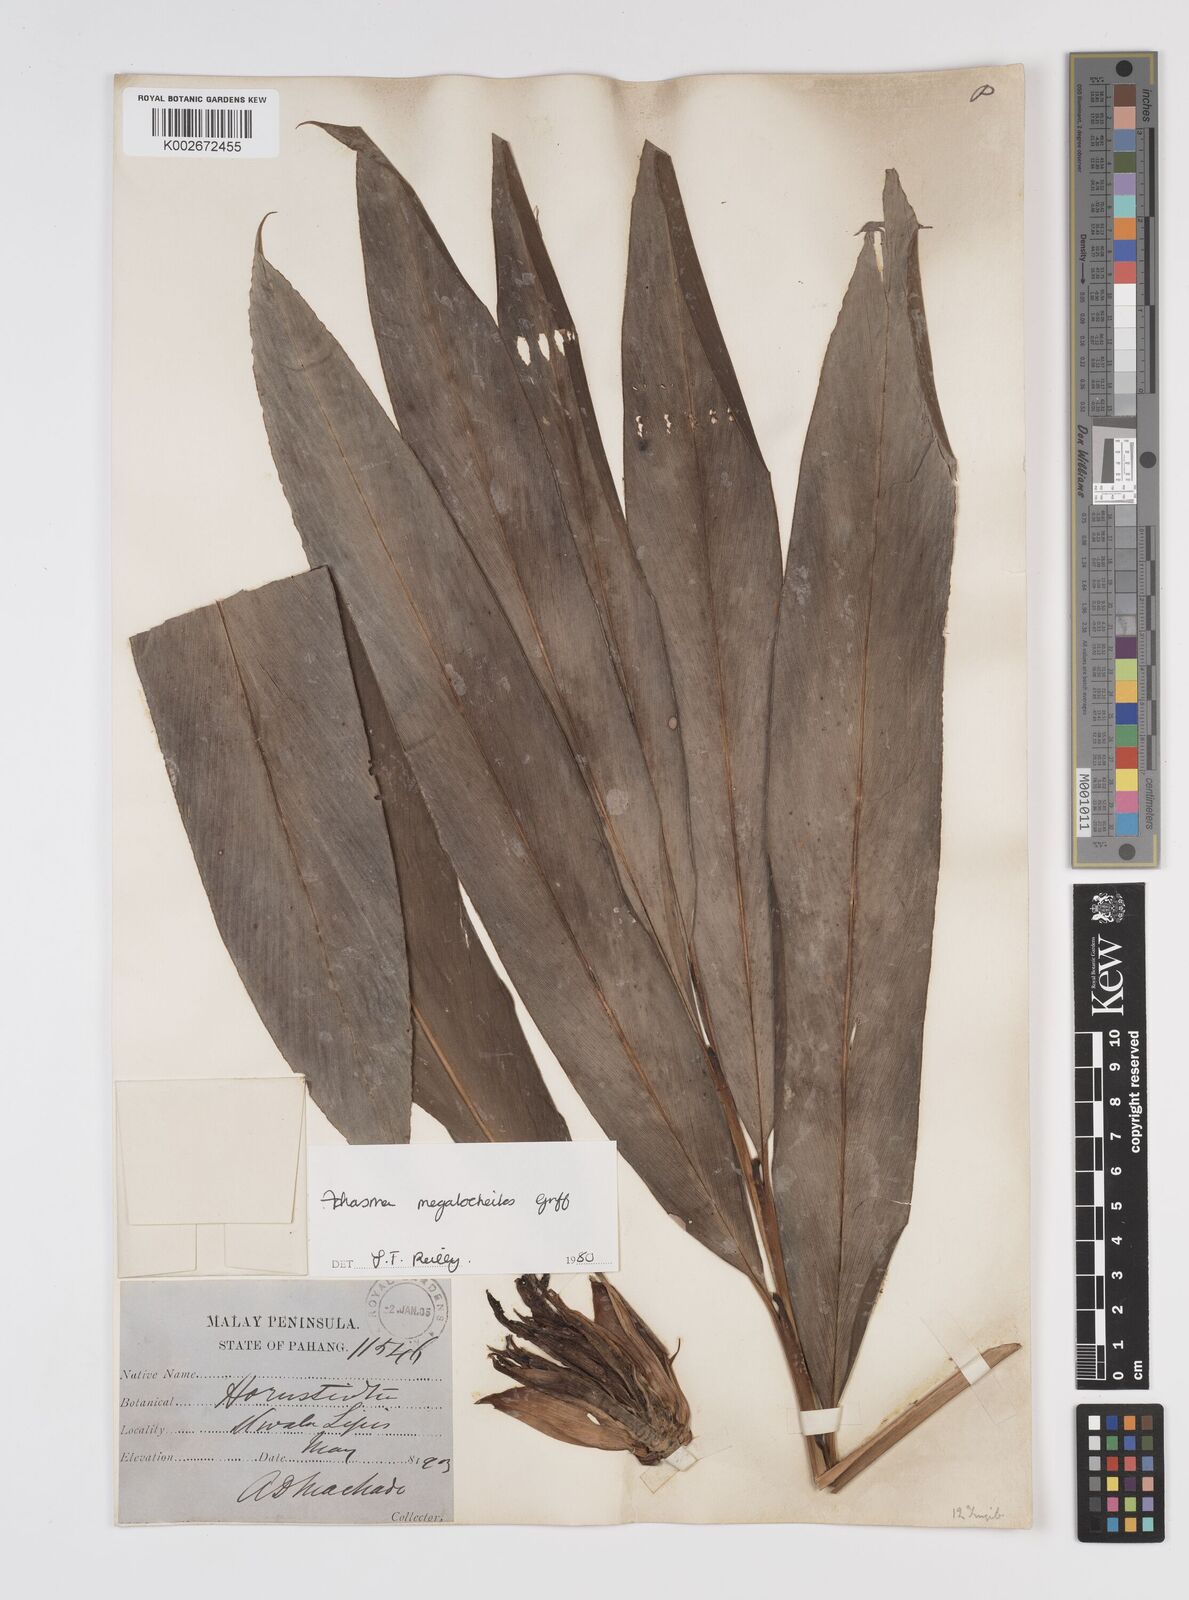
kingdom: Plantae
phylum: Tracheophyta
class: Liliopsida
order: Zingiberales
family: Zingiberaceae
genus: Etlingera
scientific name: Etlingera littoralis
